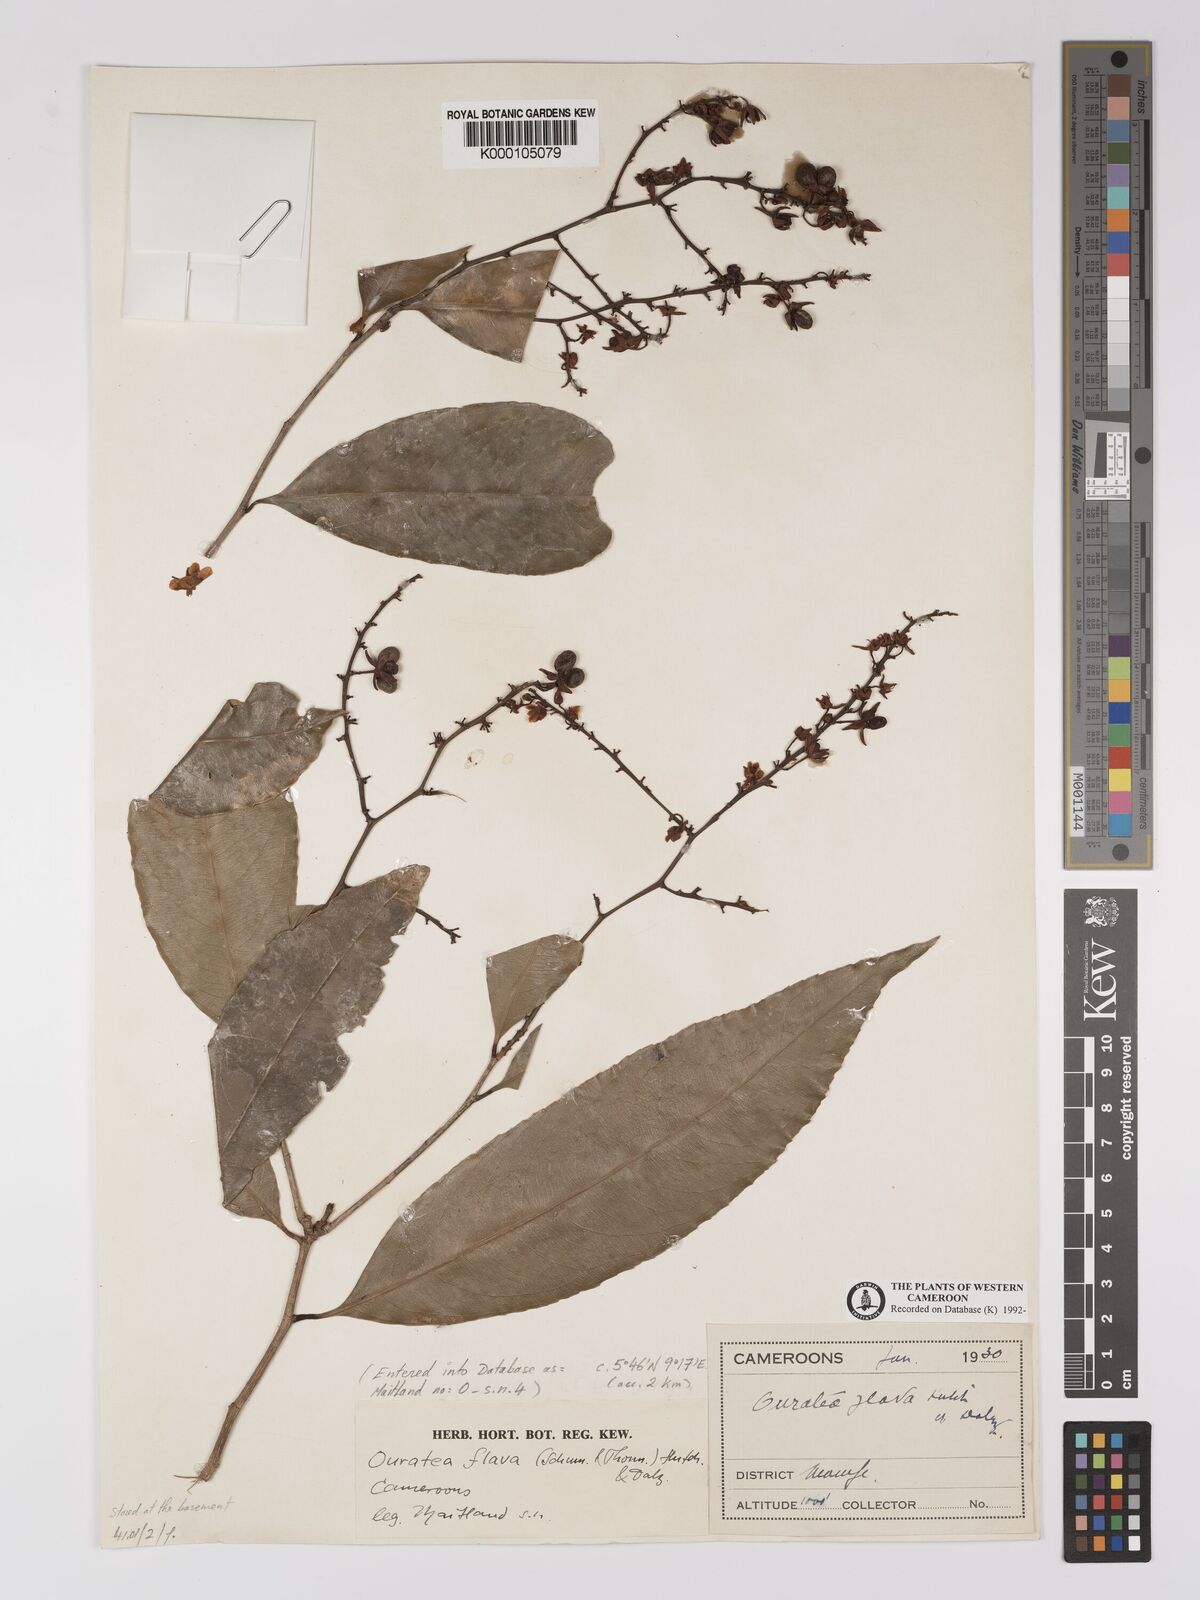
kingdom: Plantae
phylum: Tracheophyta
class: Magnoliopsida
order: Malpighiales
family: Ochnaceae
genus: Campylospermum
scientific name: Campylospermum flavum
